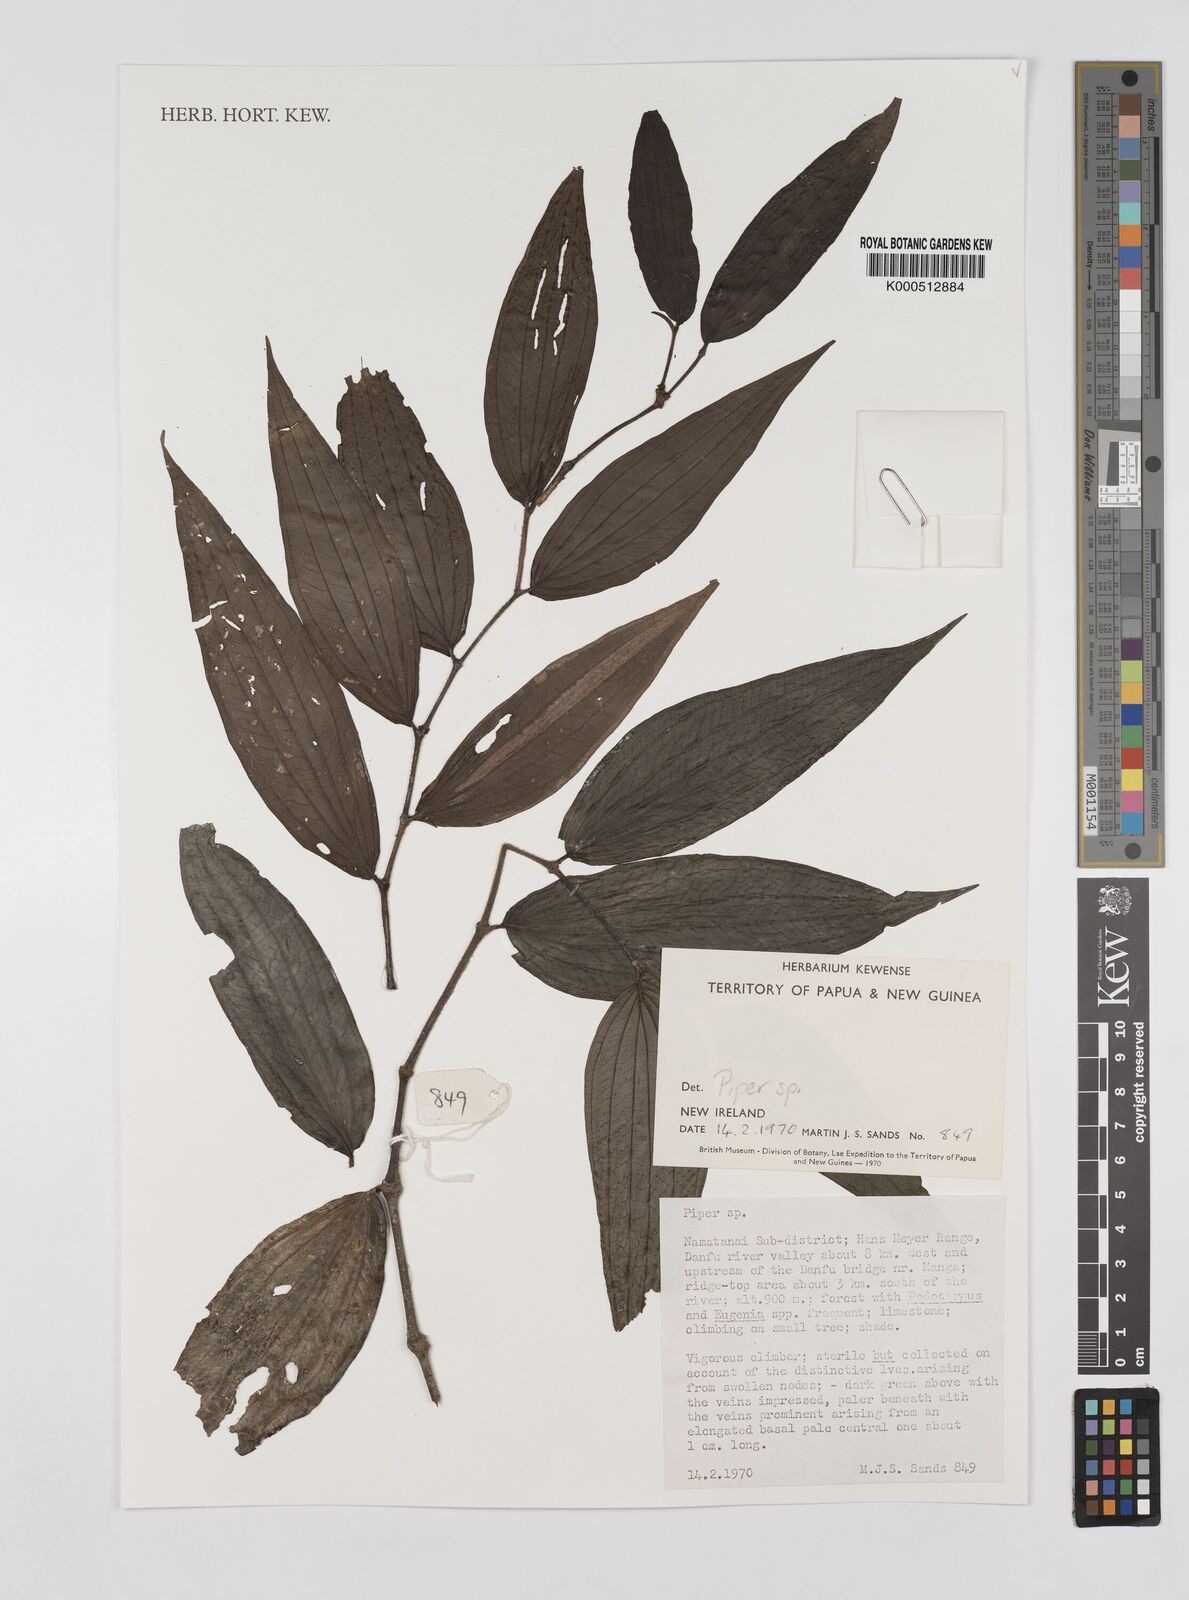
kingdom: Plantae
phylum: Tracheophyta
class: Magnoliopsida
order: Piperales
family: Piperaceae
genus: Piper
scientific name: Piper
